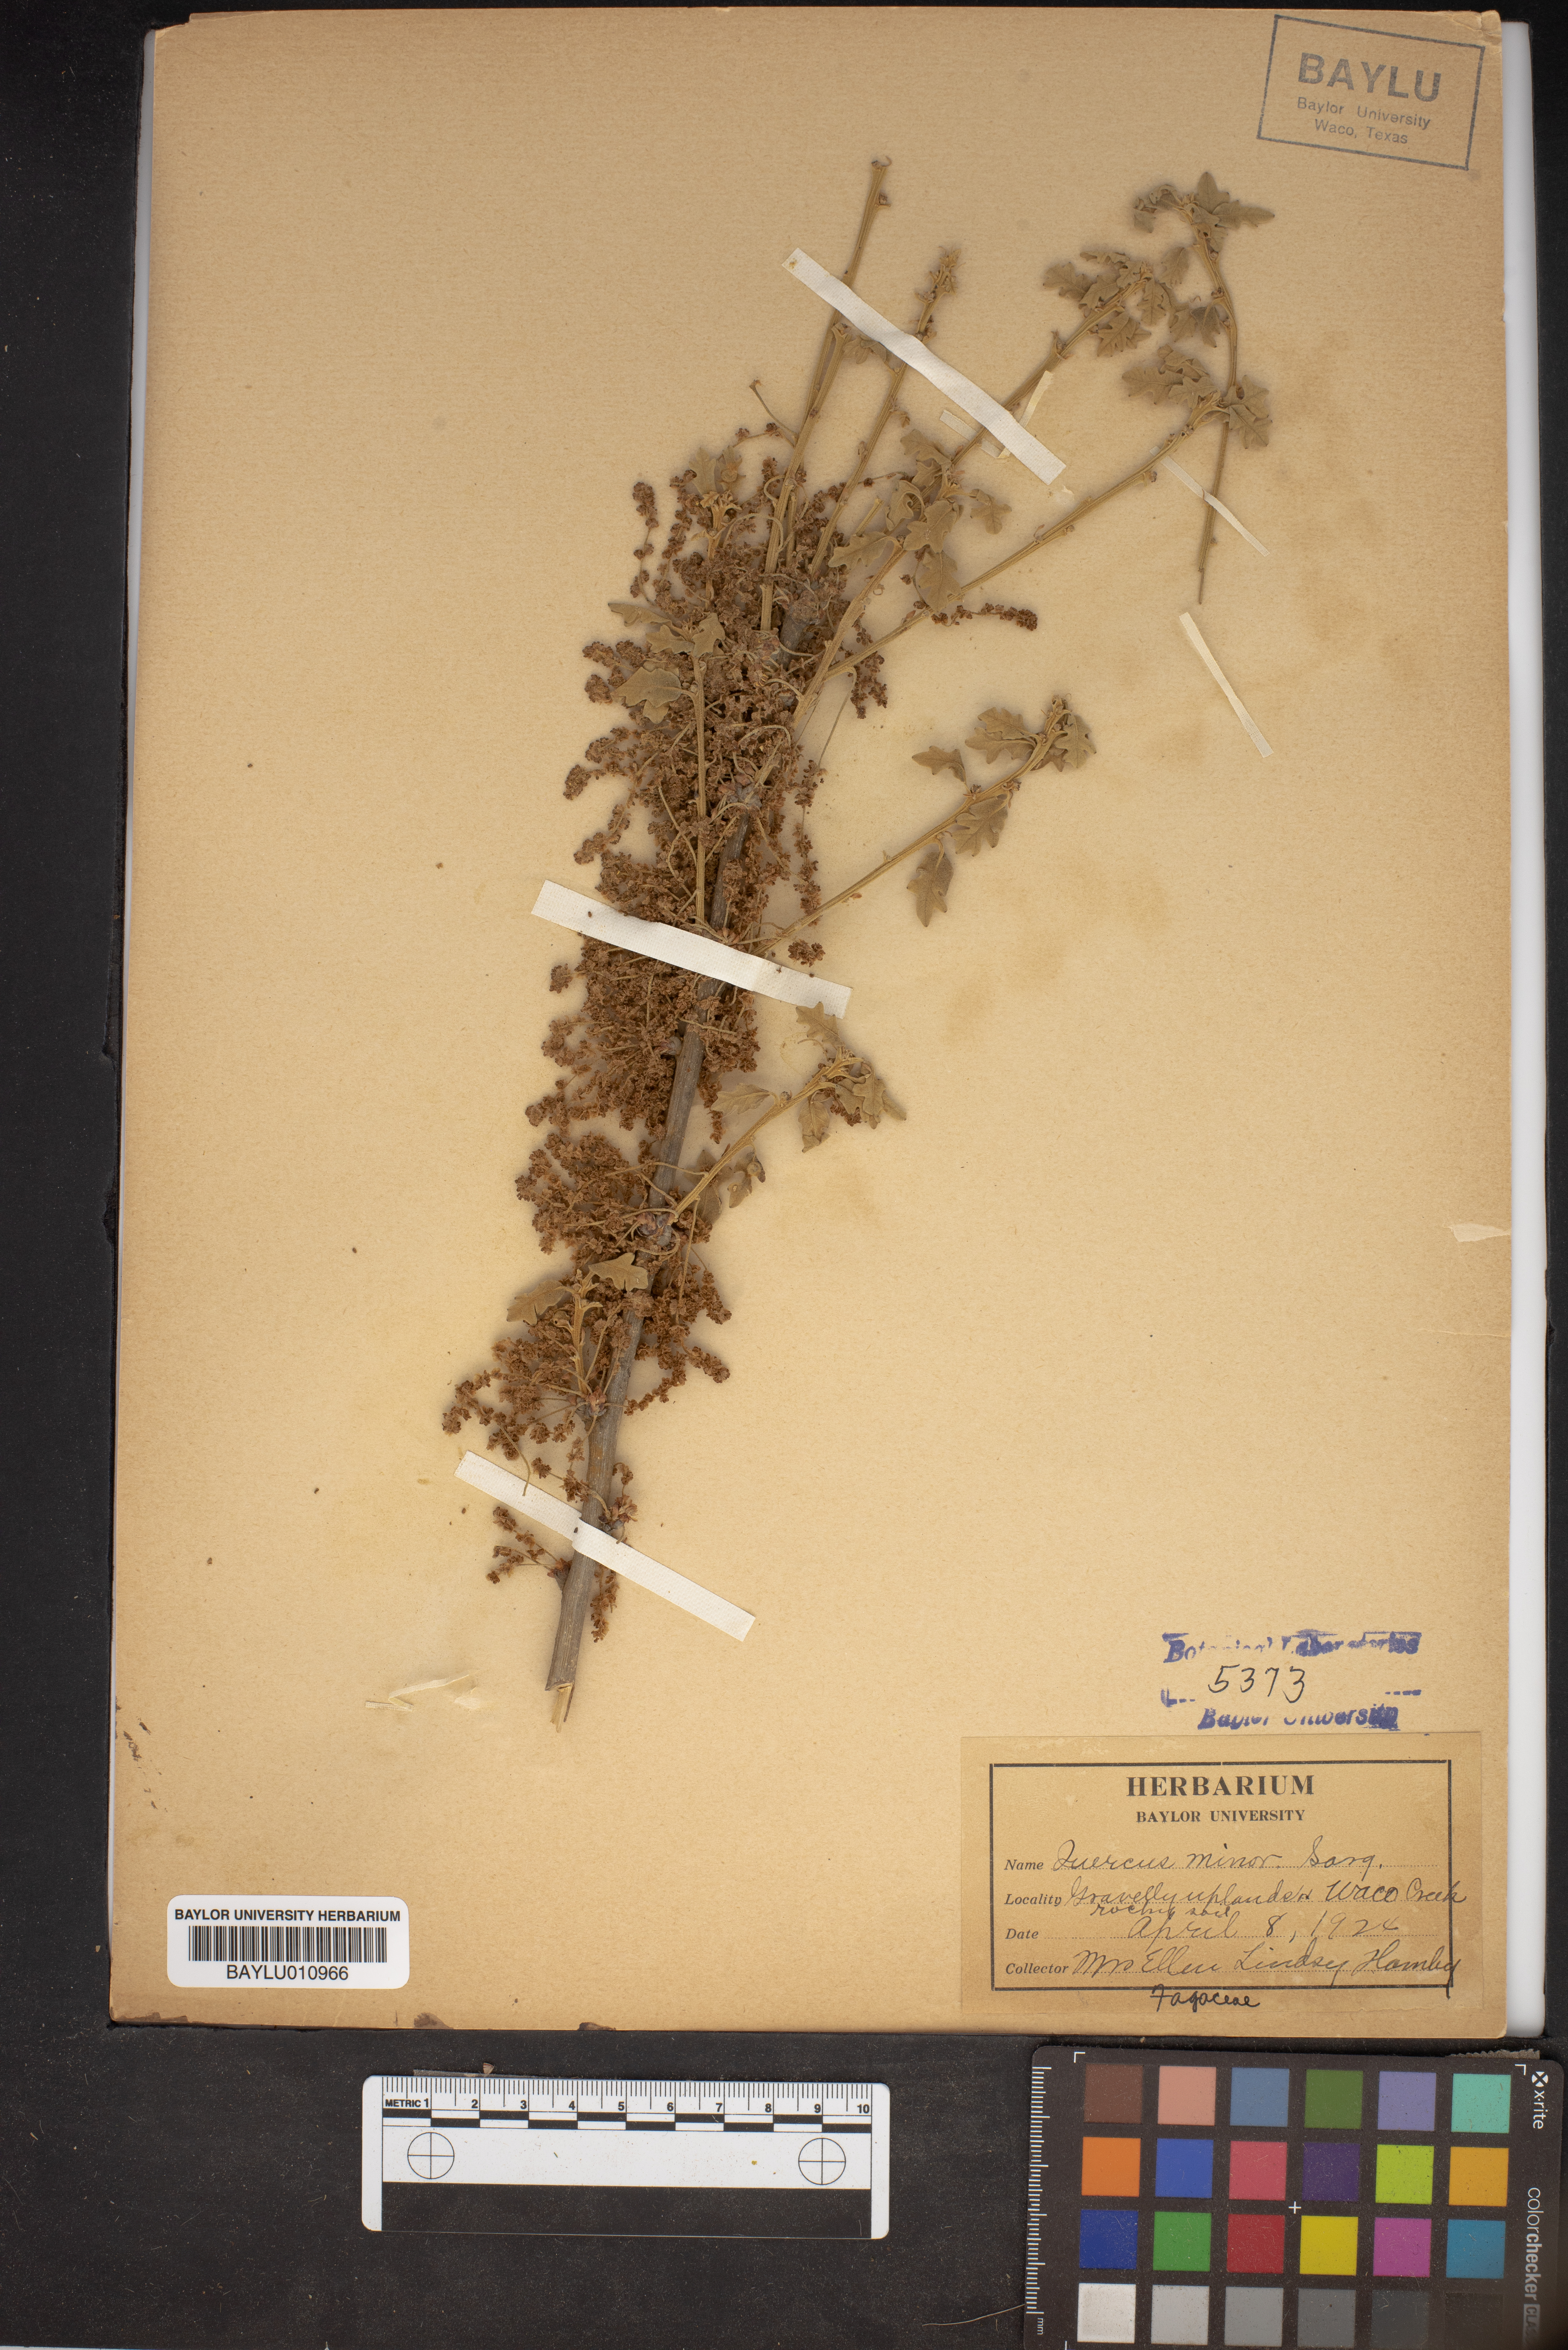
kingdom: Plantae
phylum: Tracheophyta
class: Magnoliopsida
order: Fagales
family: Fagaceae
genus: Quercus
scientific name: Quercus stellata
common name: Post oak
